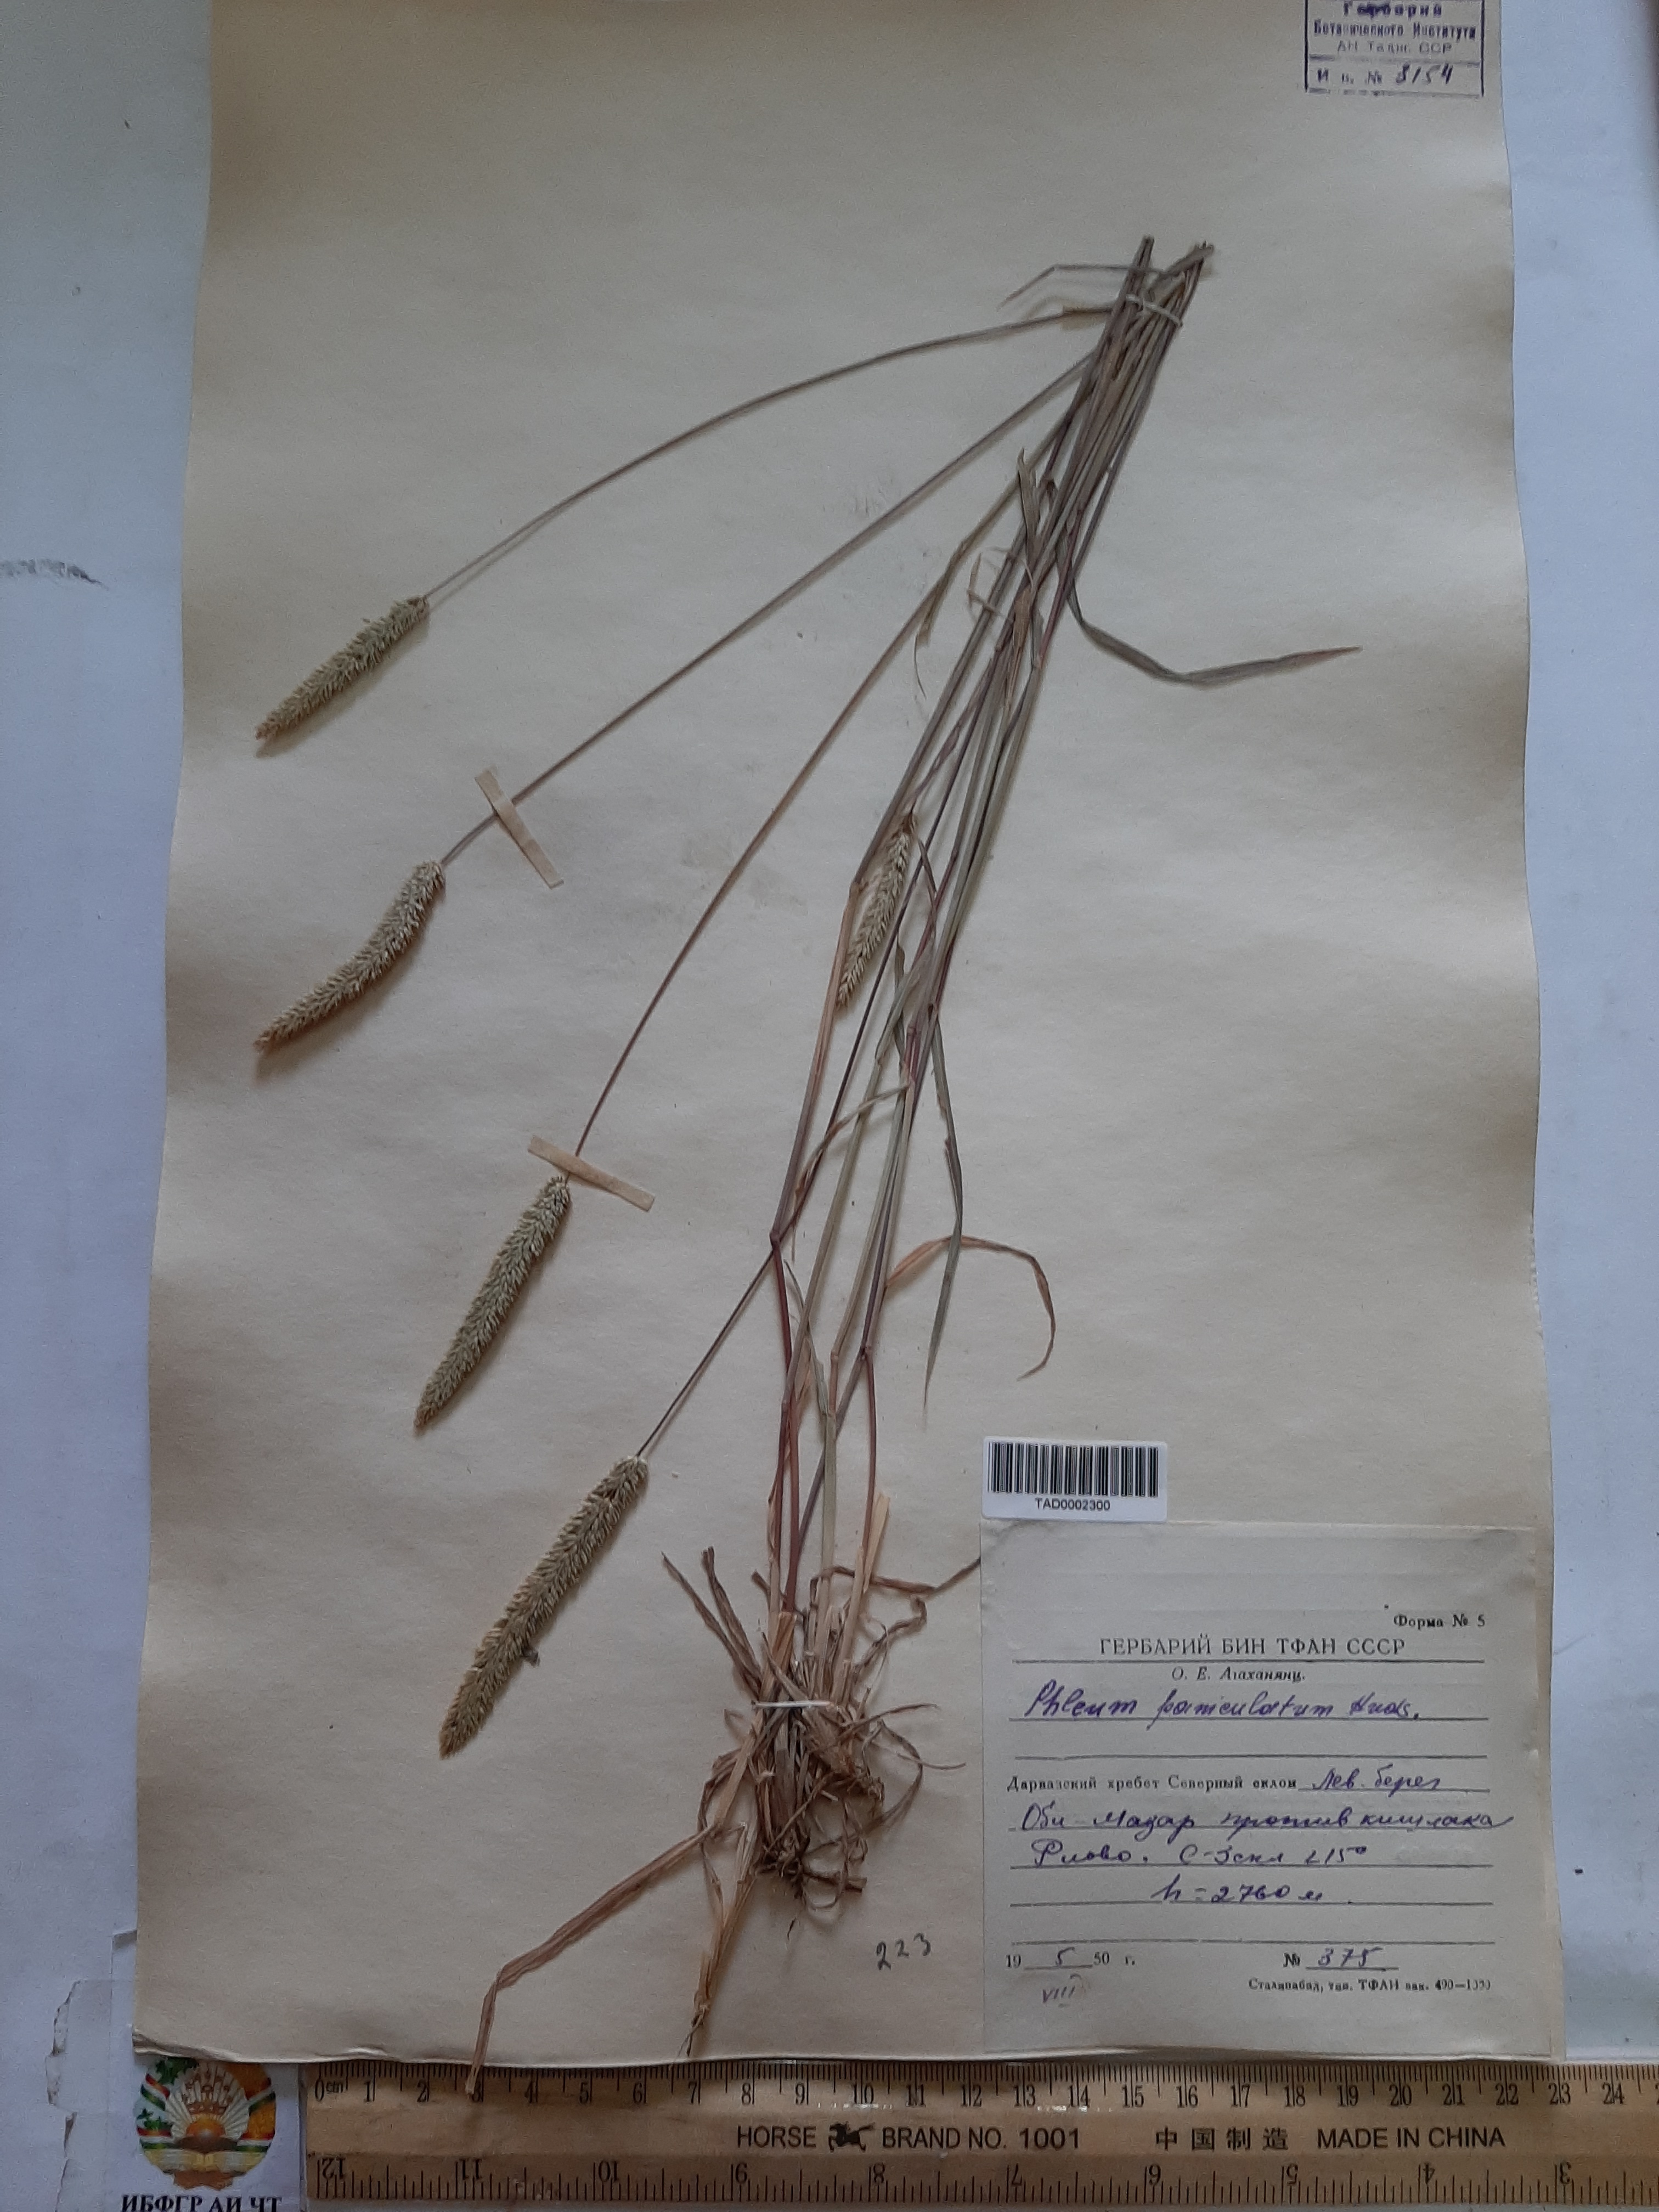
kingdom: Plantae
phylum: Tracheophyta
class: Liliopsida
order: Poales
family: Poaceae
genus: Phleum
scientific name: Phleum paniculatum
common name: British timothy
